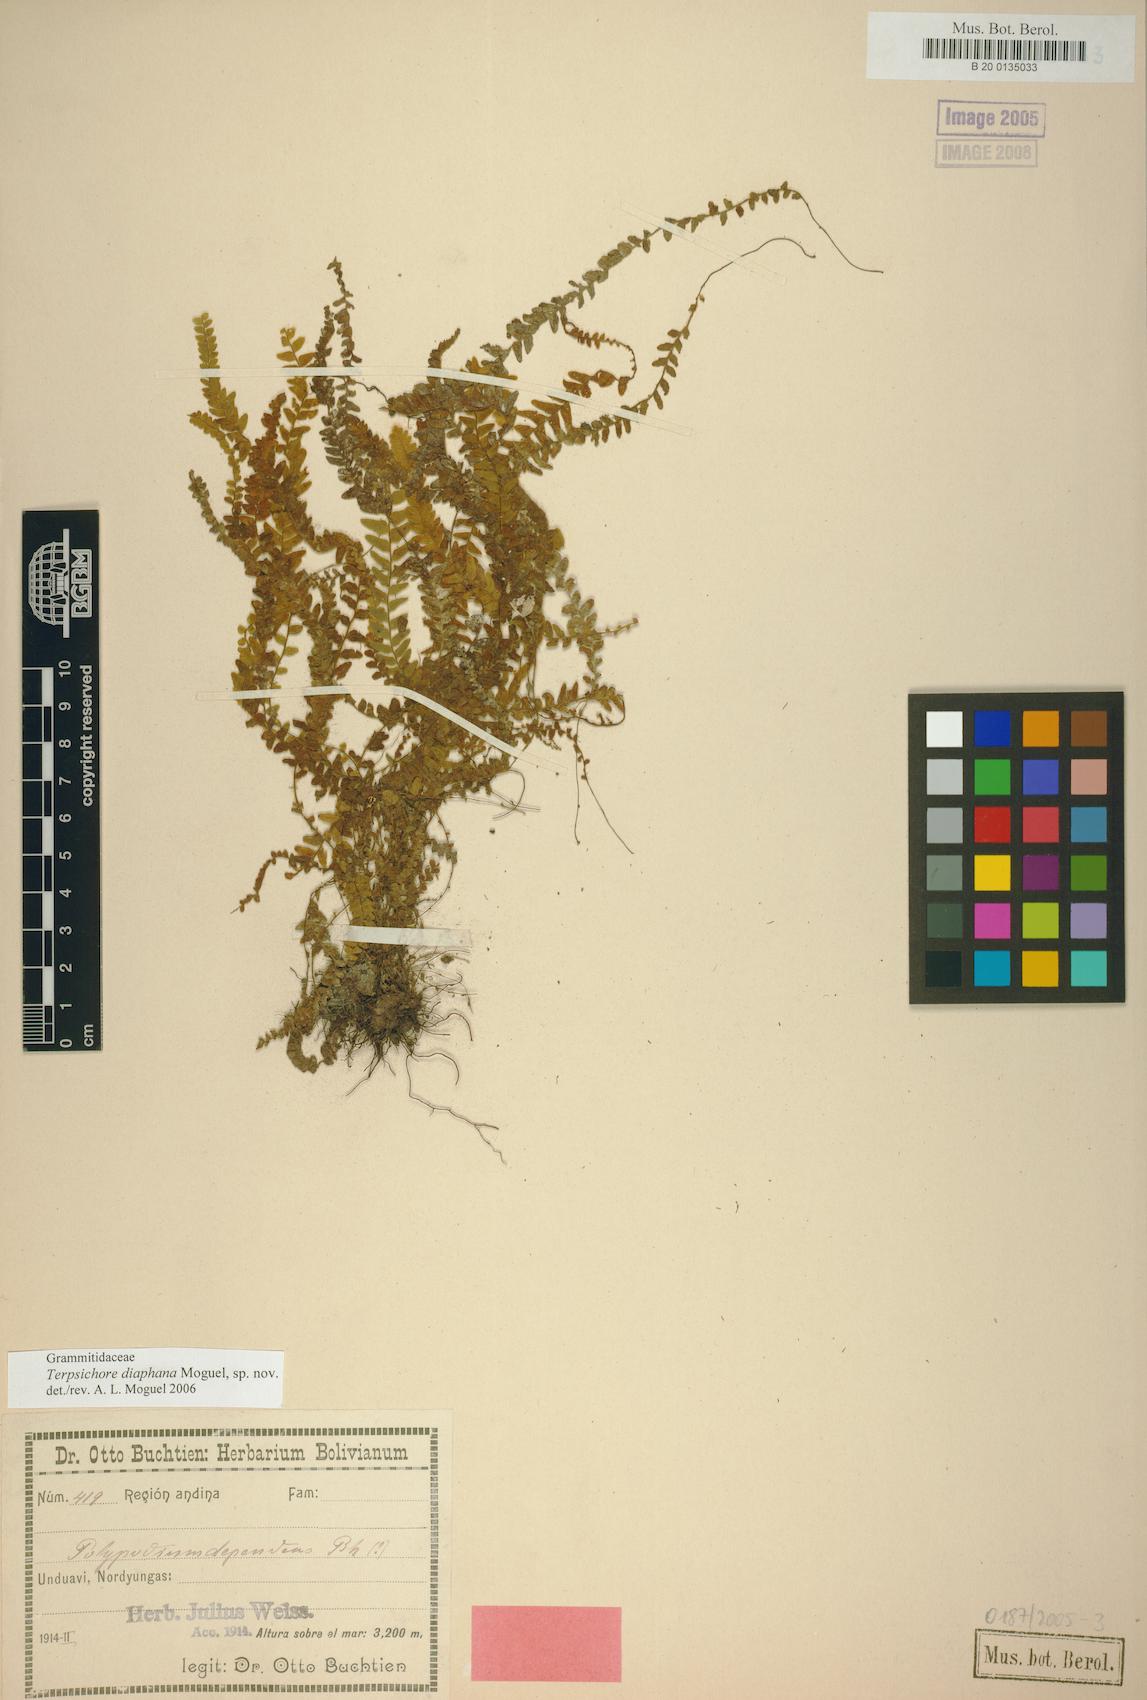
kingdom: Plantae
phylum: Tracheophyta
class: Polypodiopsida
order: Polypodiales
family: Polypodiaceae
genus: Alansmia
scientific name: Alansmia diaphana
